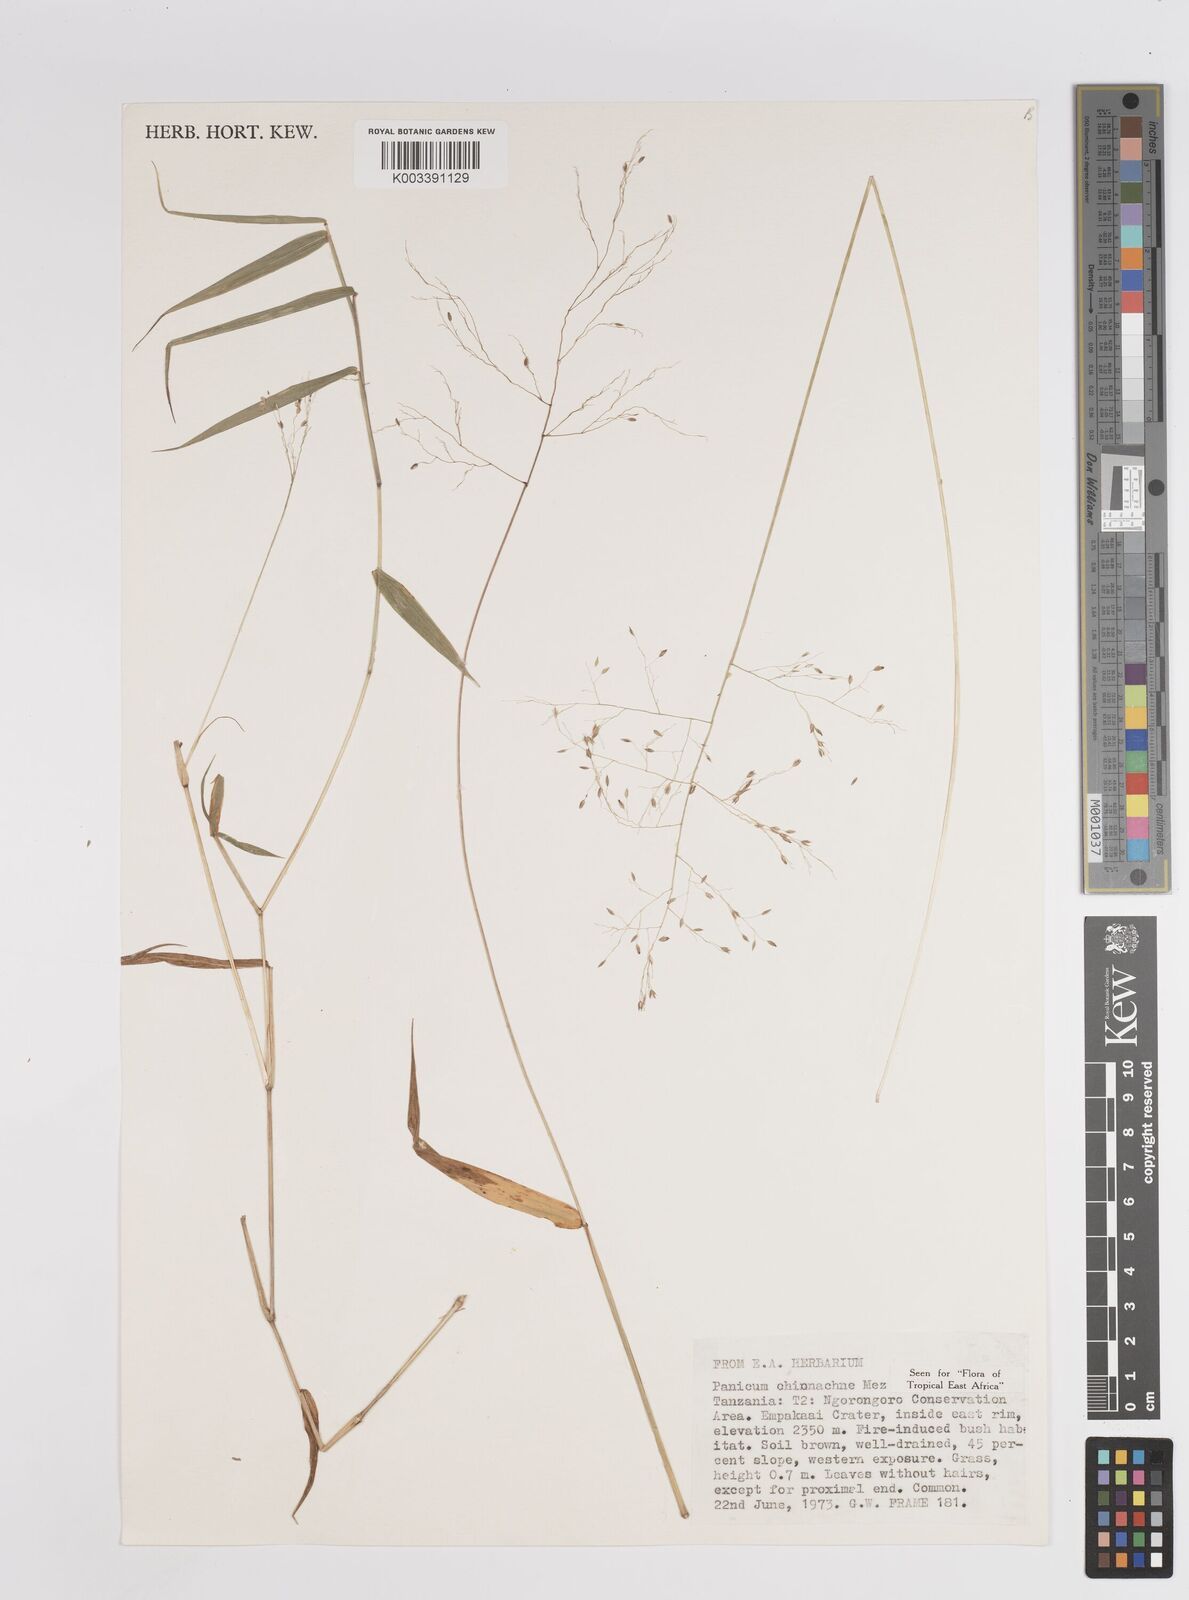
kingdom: Plantae
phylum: Tracheophyta
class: Liliopsida
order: Poales
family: Poaceae
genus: Panicum
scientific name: Panicum chionachne
